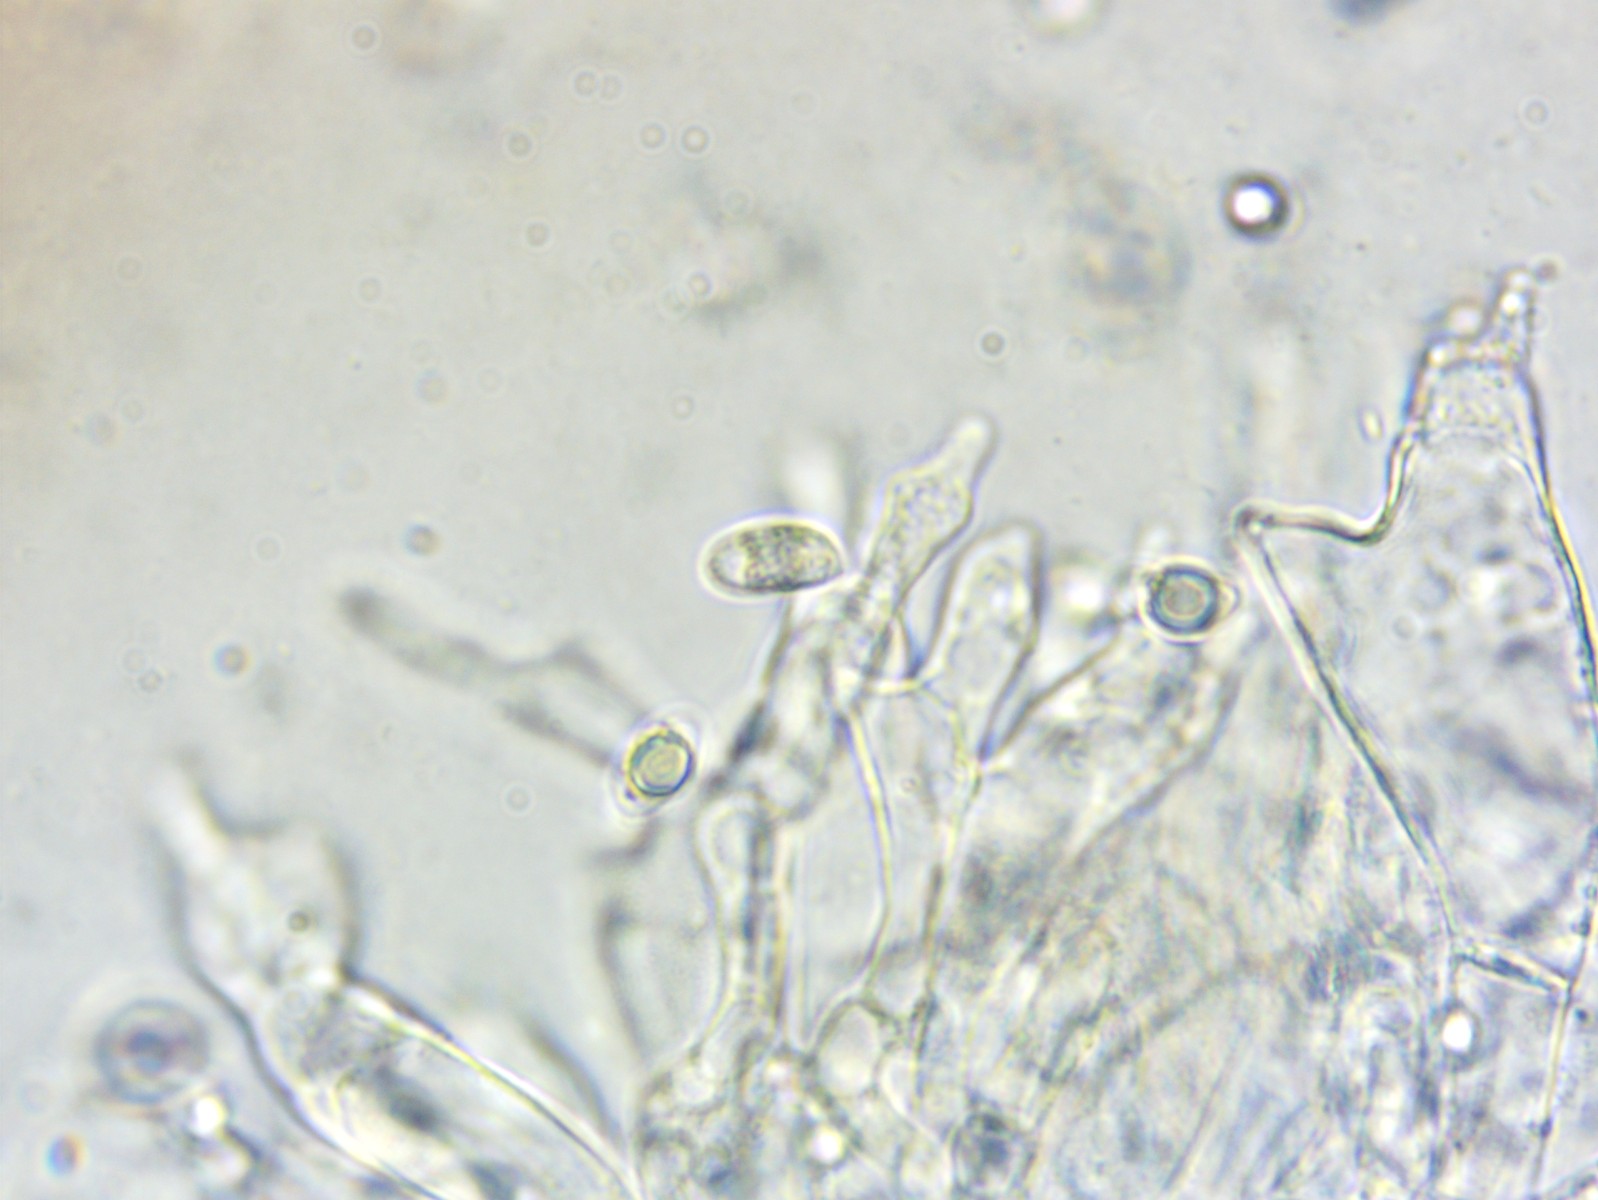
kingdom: Fungi
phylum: Basidiomycota
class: Agaricomycetes
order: Agaricales
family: Mycenaceae
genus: Mycena
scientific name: Mycena vitilis
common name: blankstokket huesvamp
